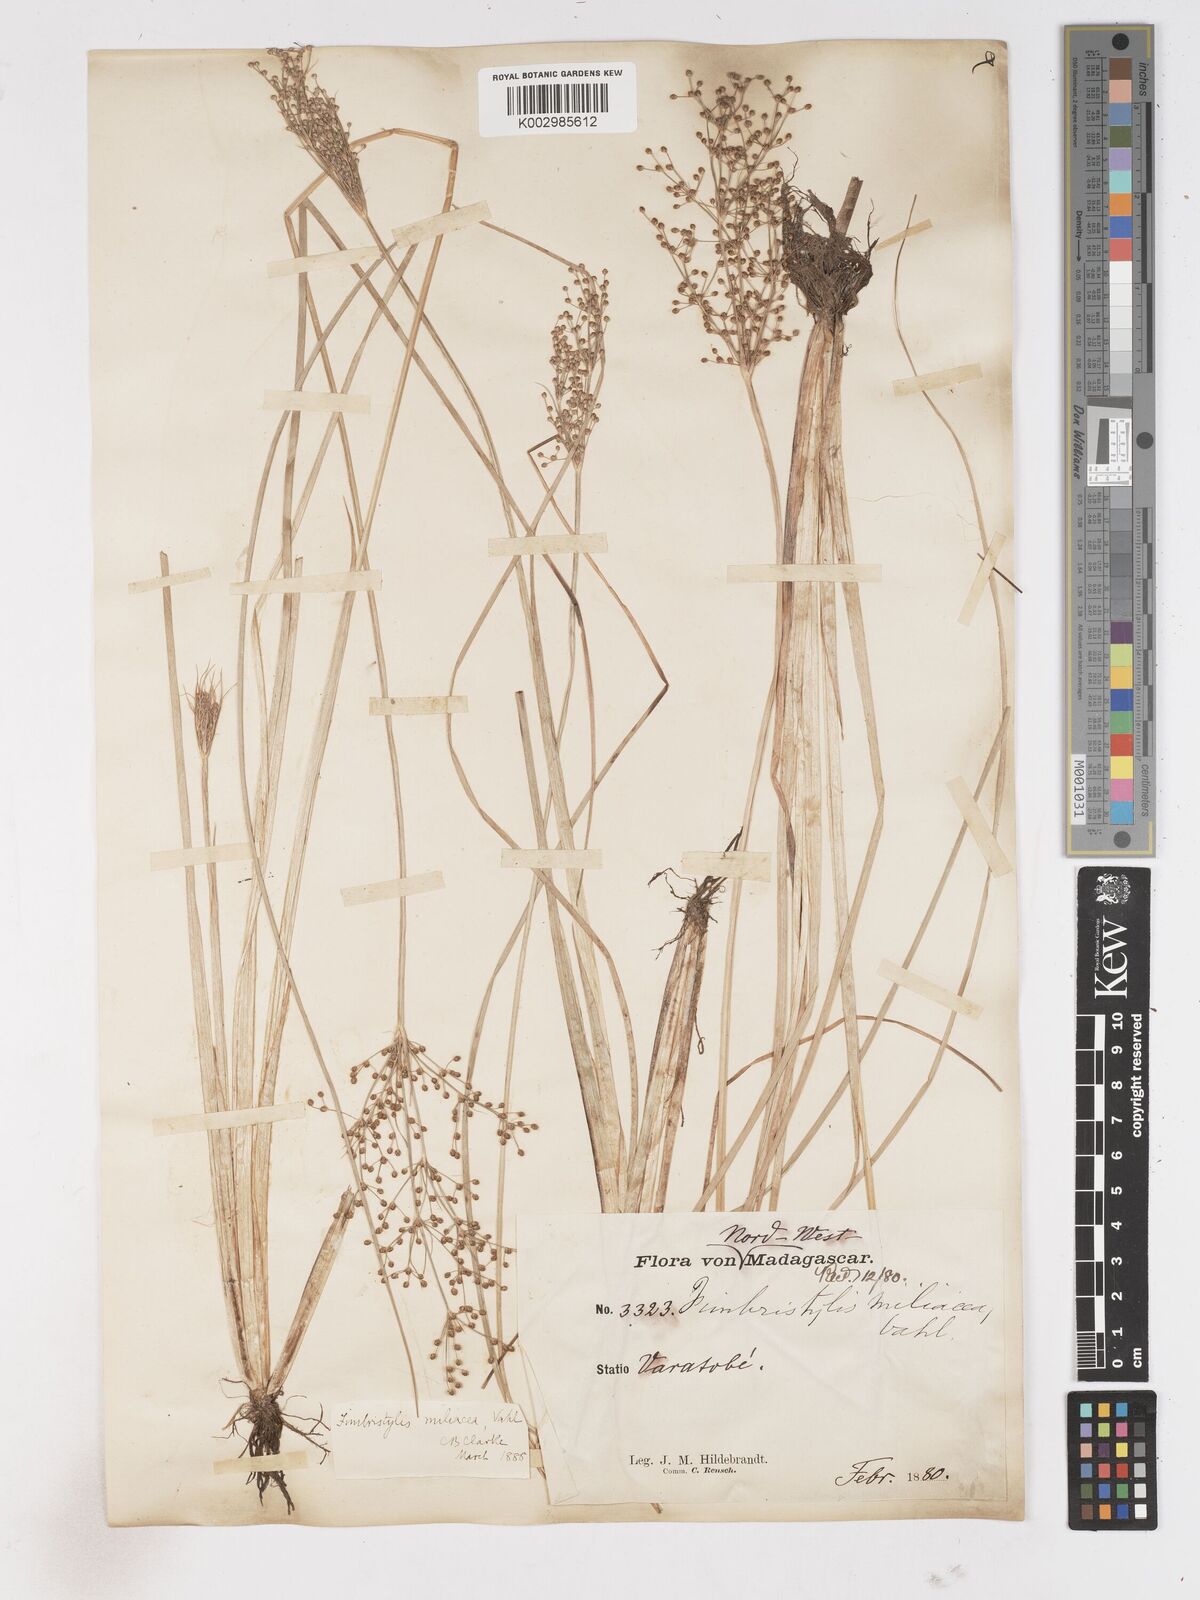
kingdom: Plantae
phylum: Tracheophyta
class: Liliopsida
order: Poales
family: Cyperaceae
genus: Fimbristylis
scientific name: Fimbristylis littoralis
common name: Fimbry
